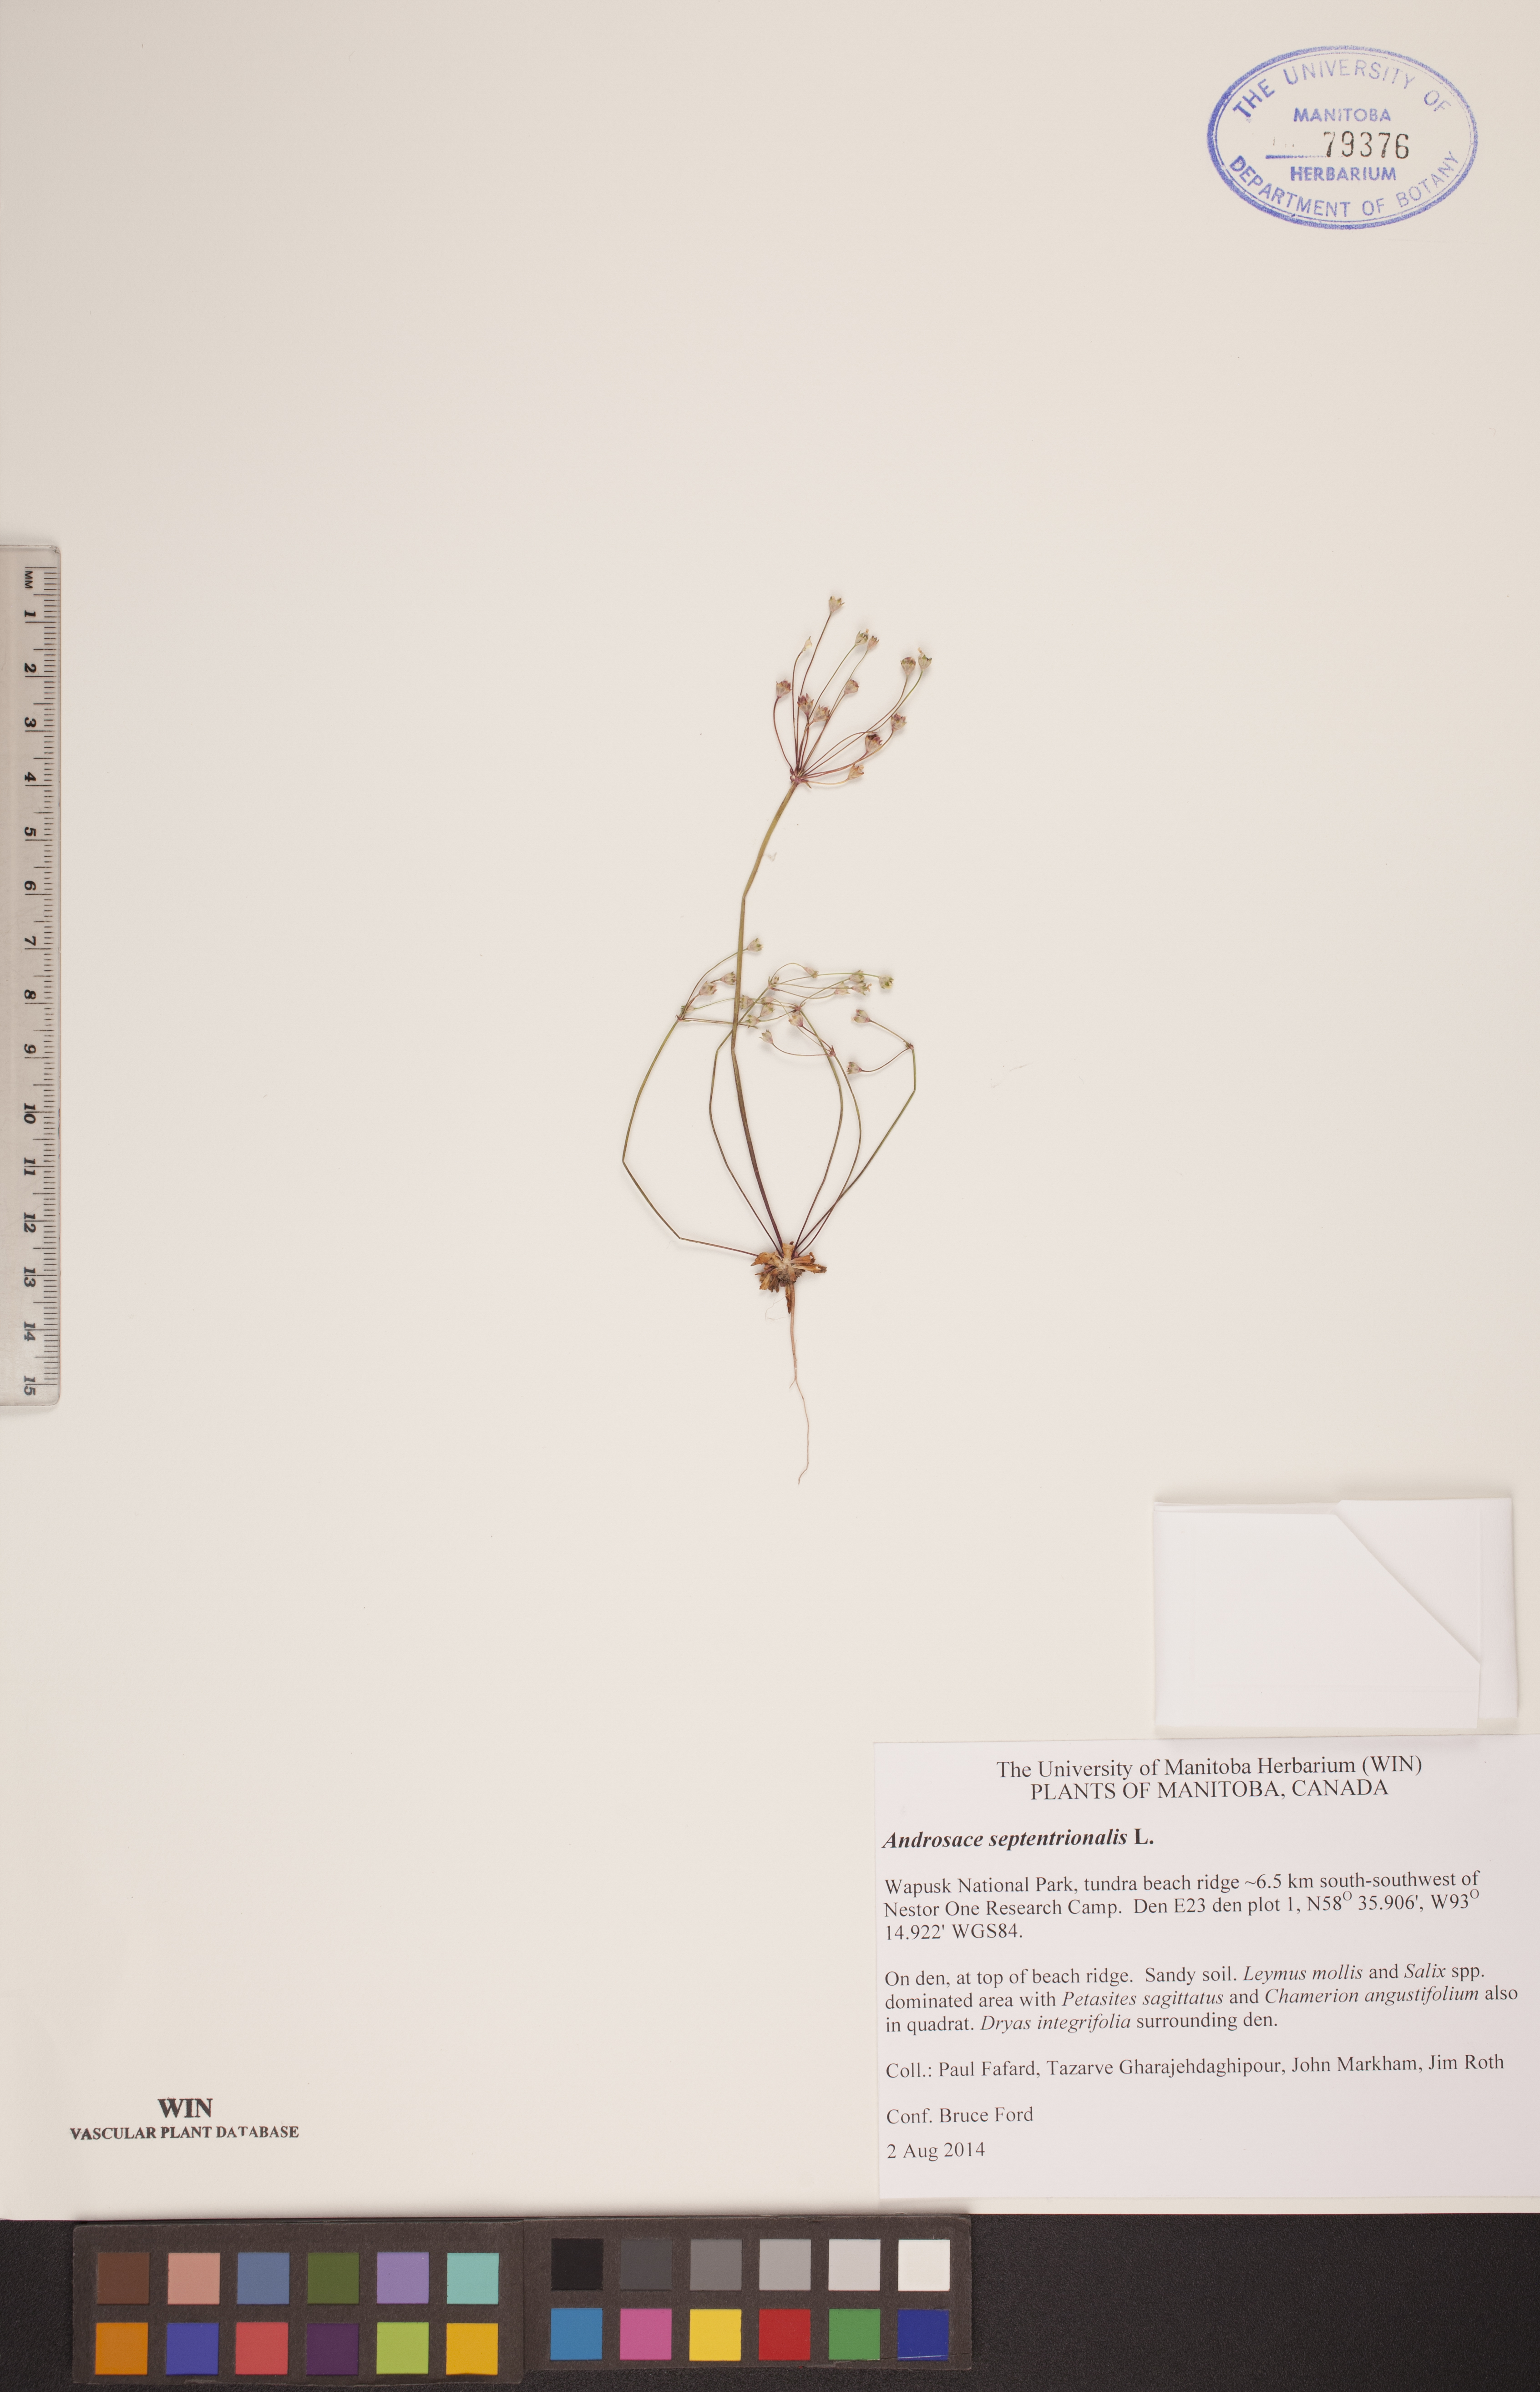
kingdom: Plantae
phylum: Tracheophyta
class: Magnoliopsida
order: Ericales
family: Primulaceae
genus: Androsace
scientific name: Androsace septentrionalis
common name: Hairy northern fairy-candelabra
